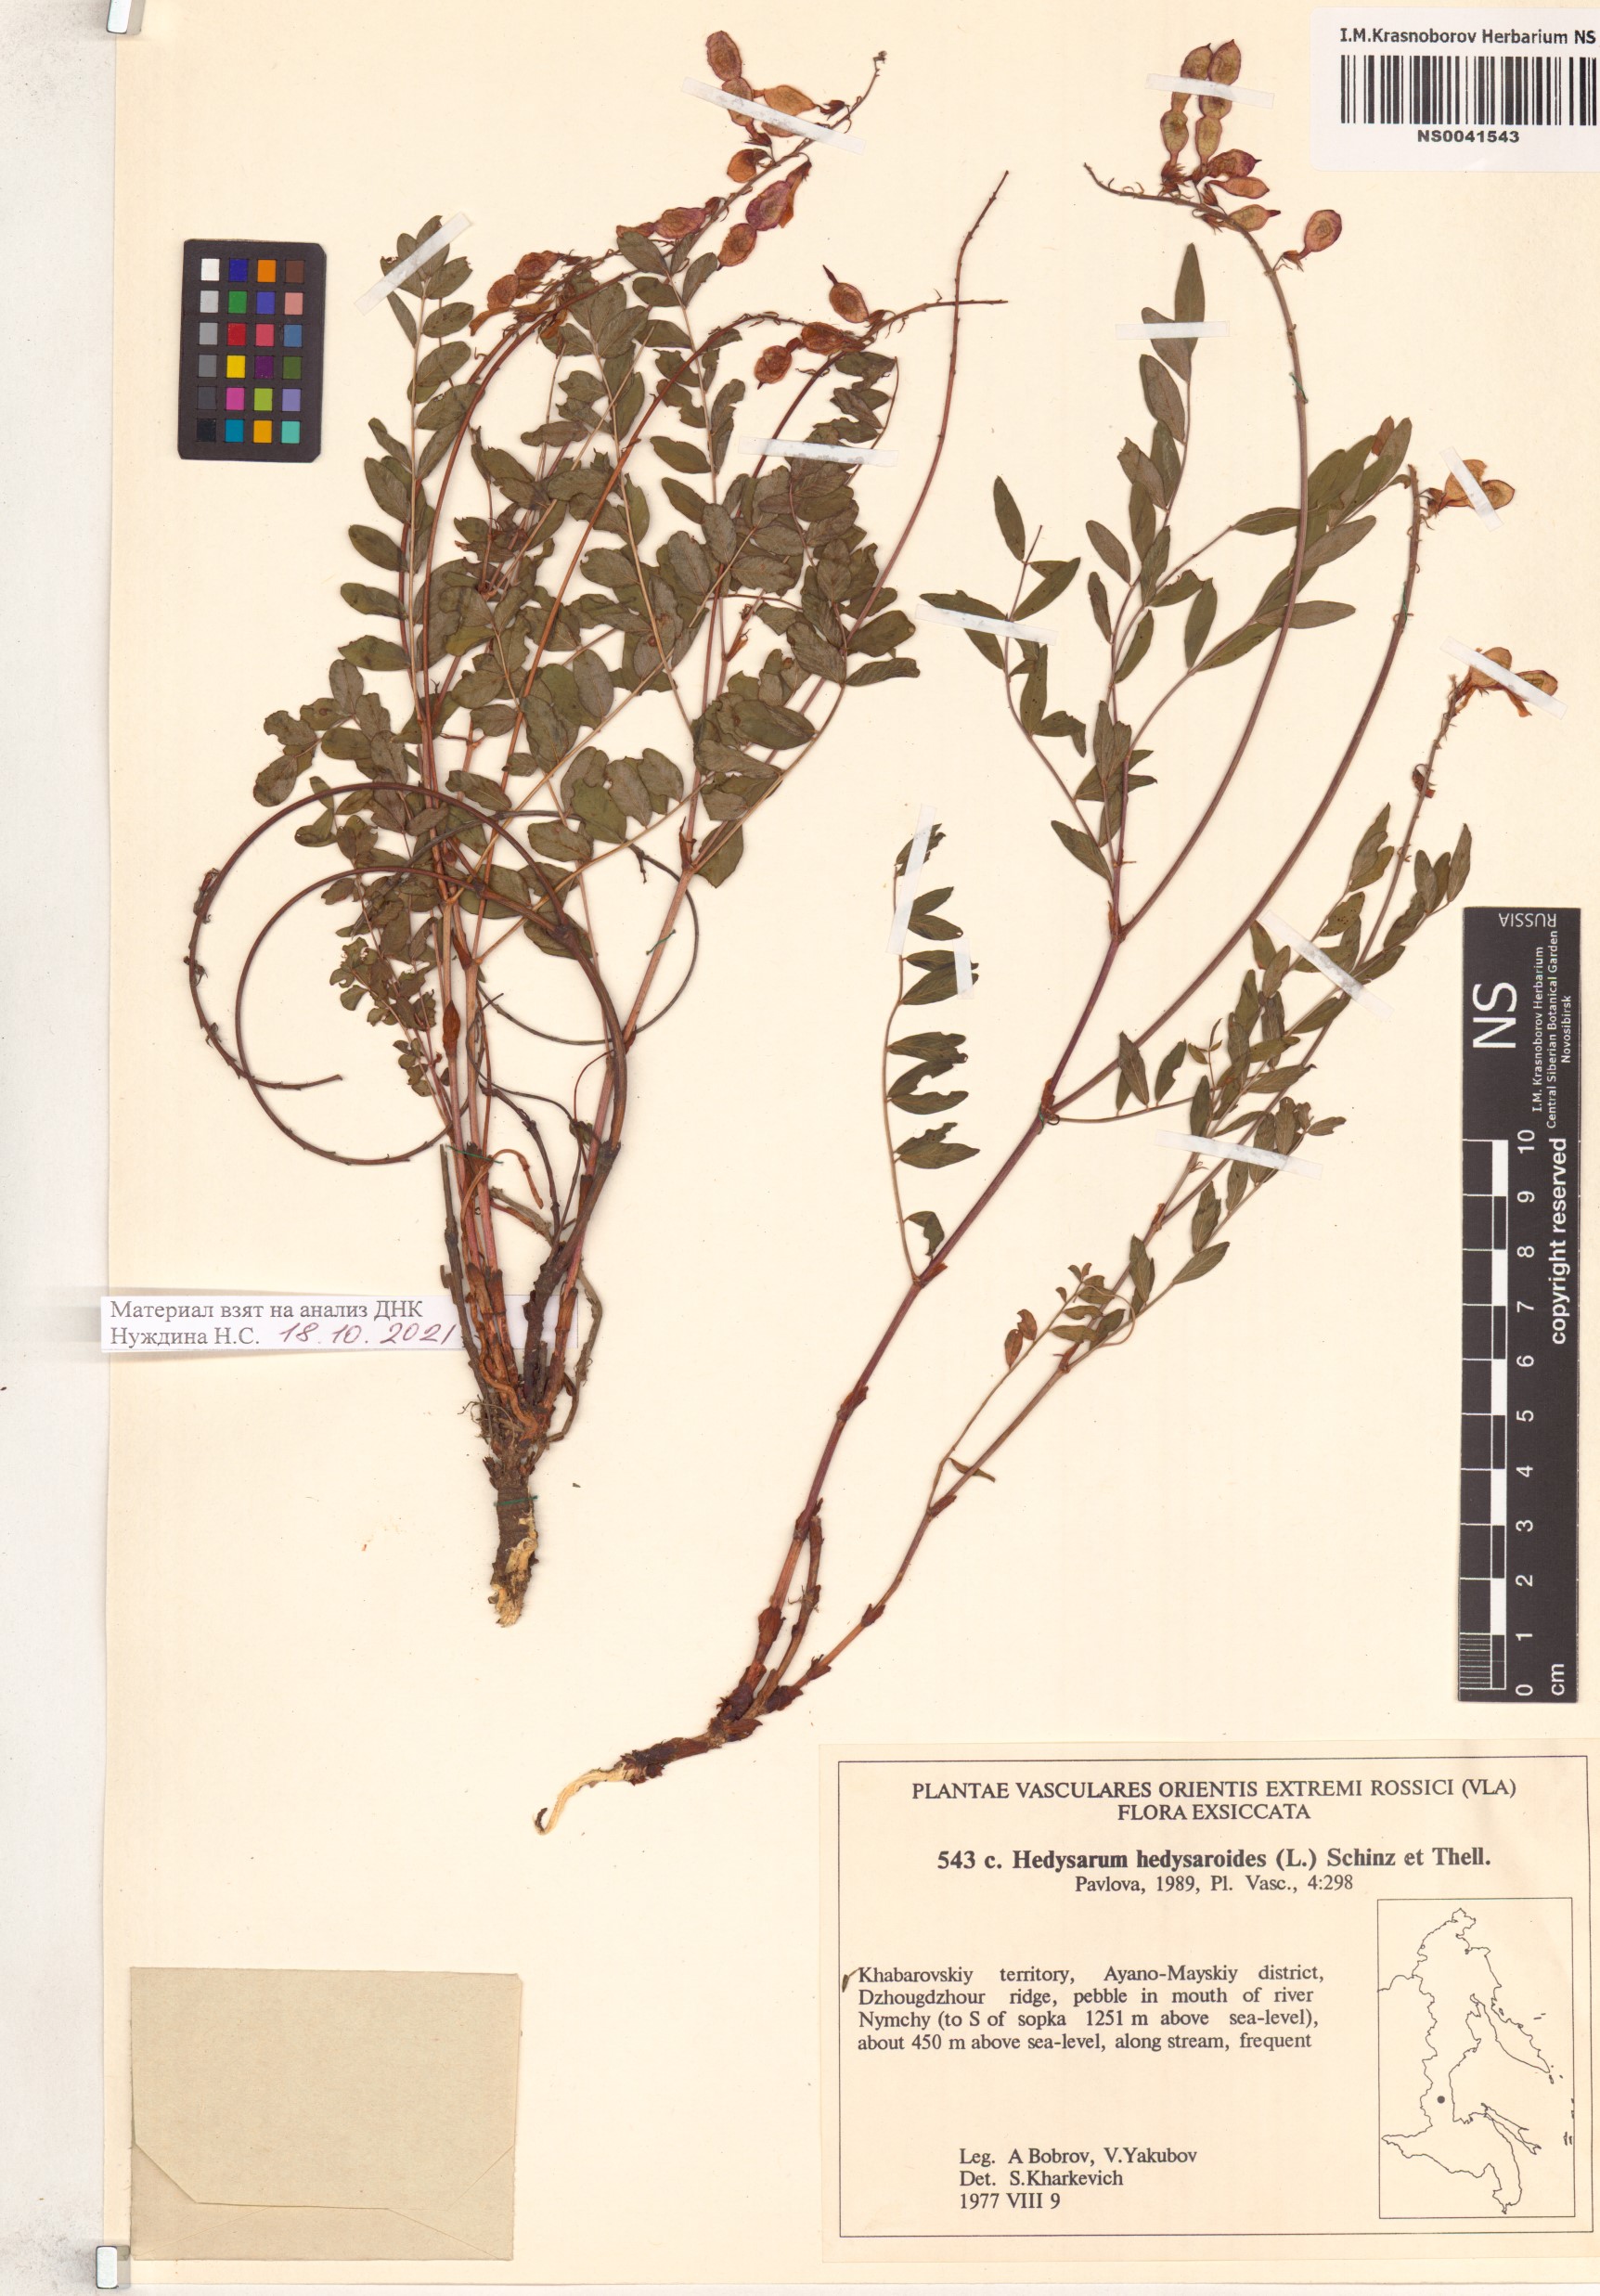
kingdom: Plantae
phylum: Tracheophyta
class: Magnoliopsida
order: Fabales
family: Fabaceae
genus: Hedysarum
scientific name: Hedysarum hedysaroides
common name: Alpine french-honeysuckle
